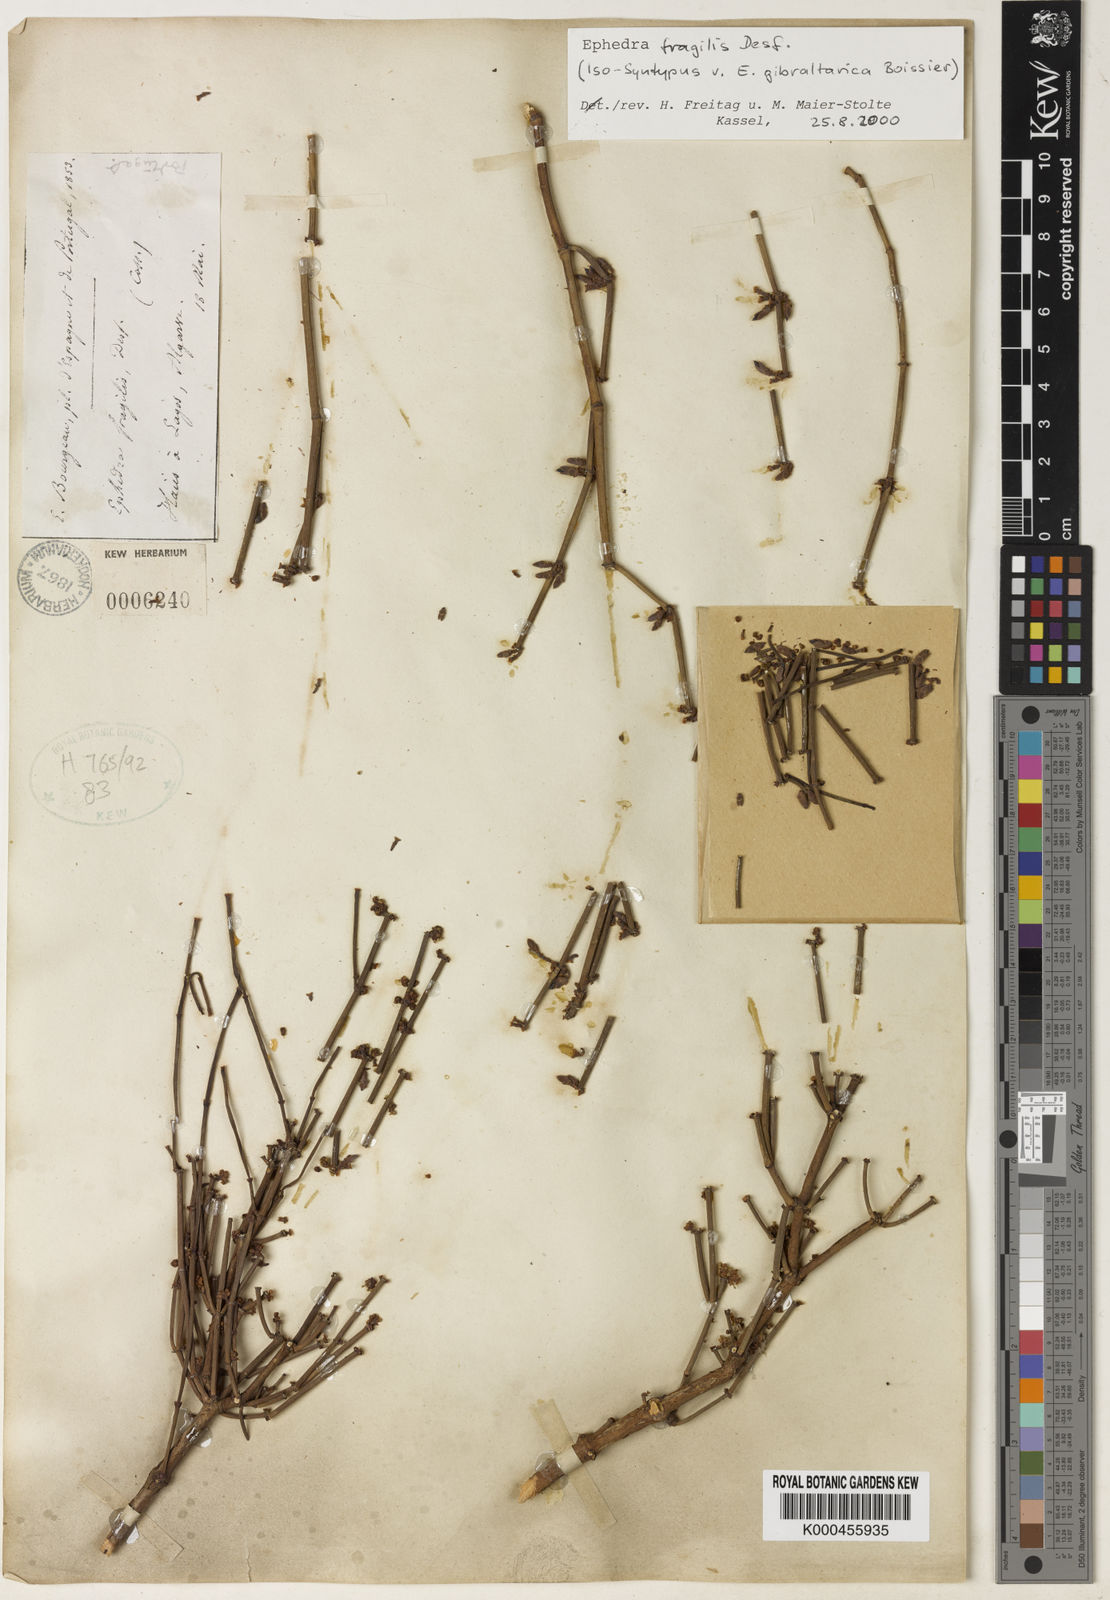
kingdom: Plantae
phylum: Tracheophyta
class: Gnetopsida
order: Ephedrales
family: Ephedraceae
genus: Ephedra
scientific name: Ephedra fragilis
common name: Joint pine
